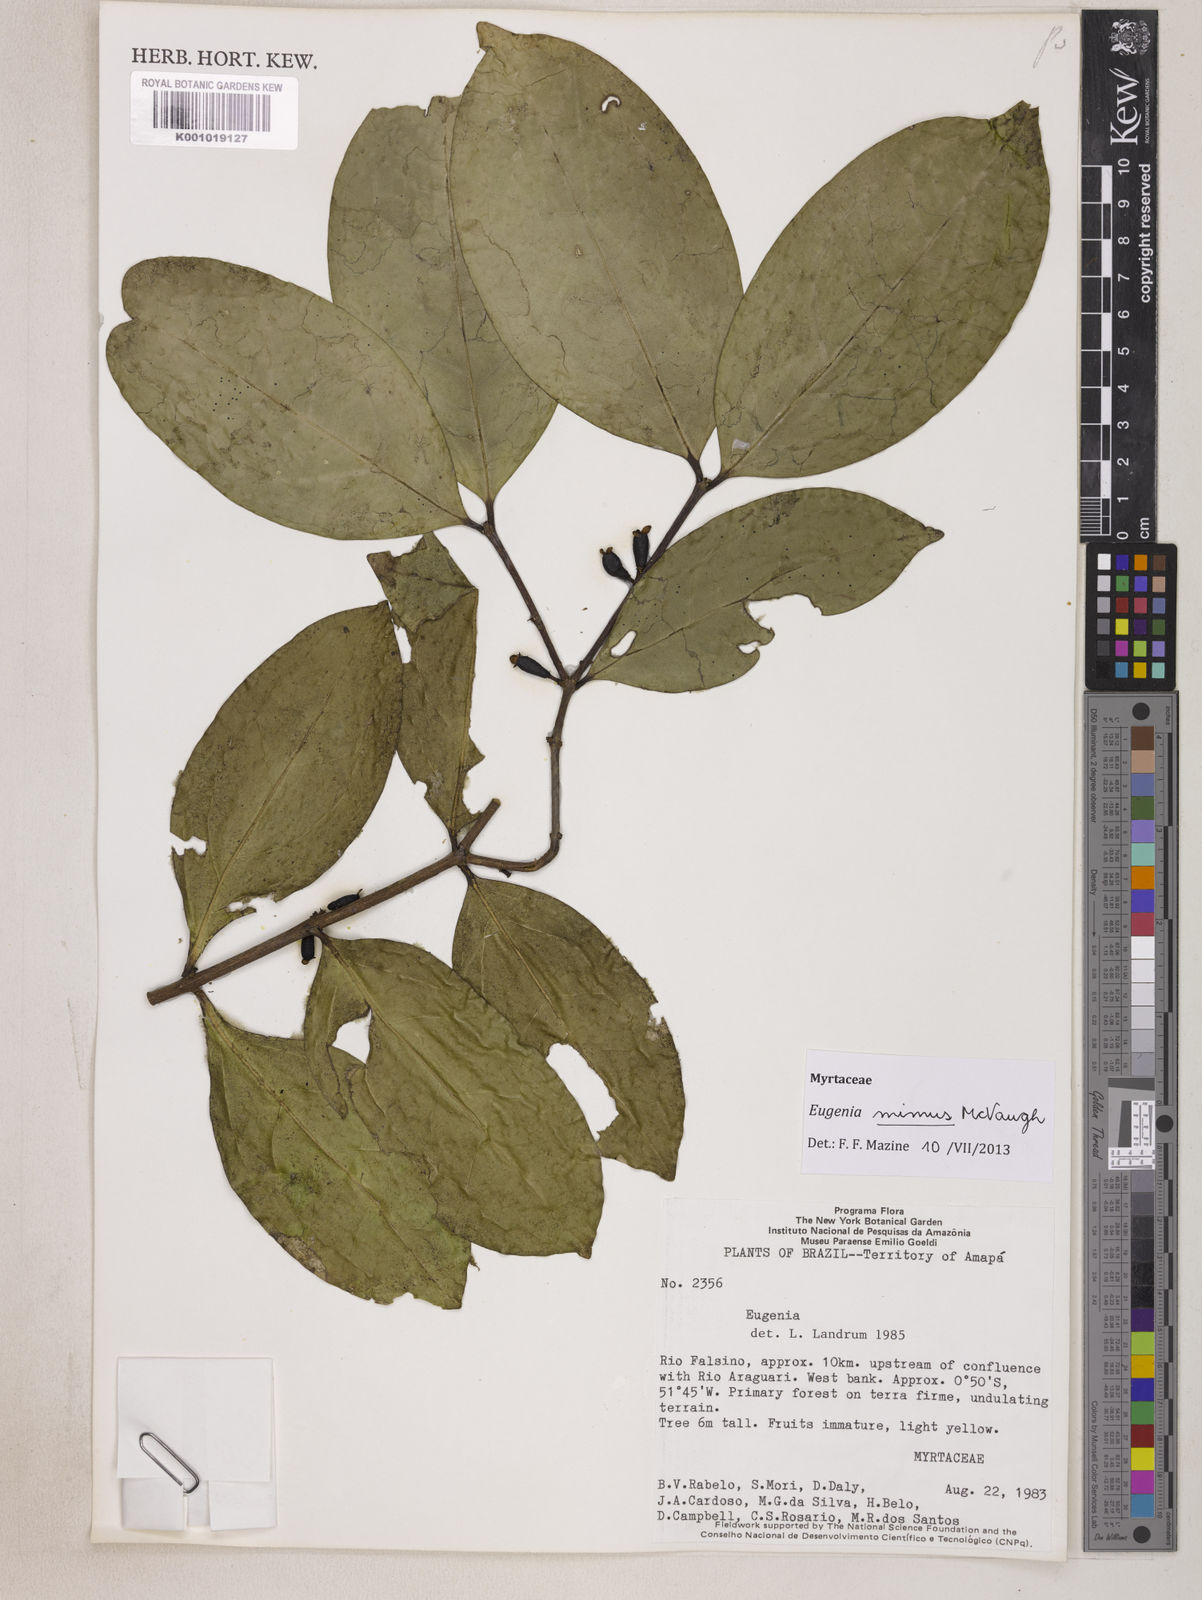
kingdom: Plantae
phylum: Tracheophyta
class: Magnoliopsida
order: Myrtales
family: Myrtaceae
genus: Eugenia
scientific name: Eugenia mimus
